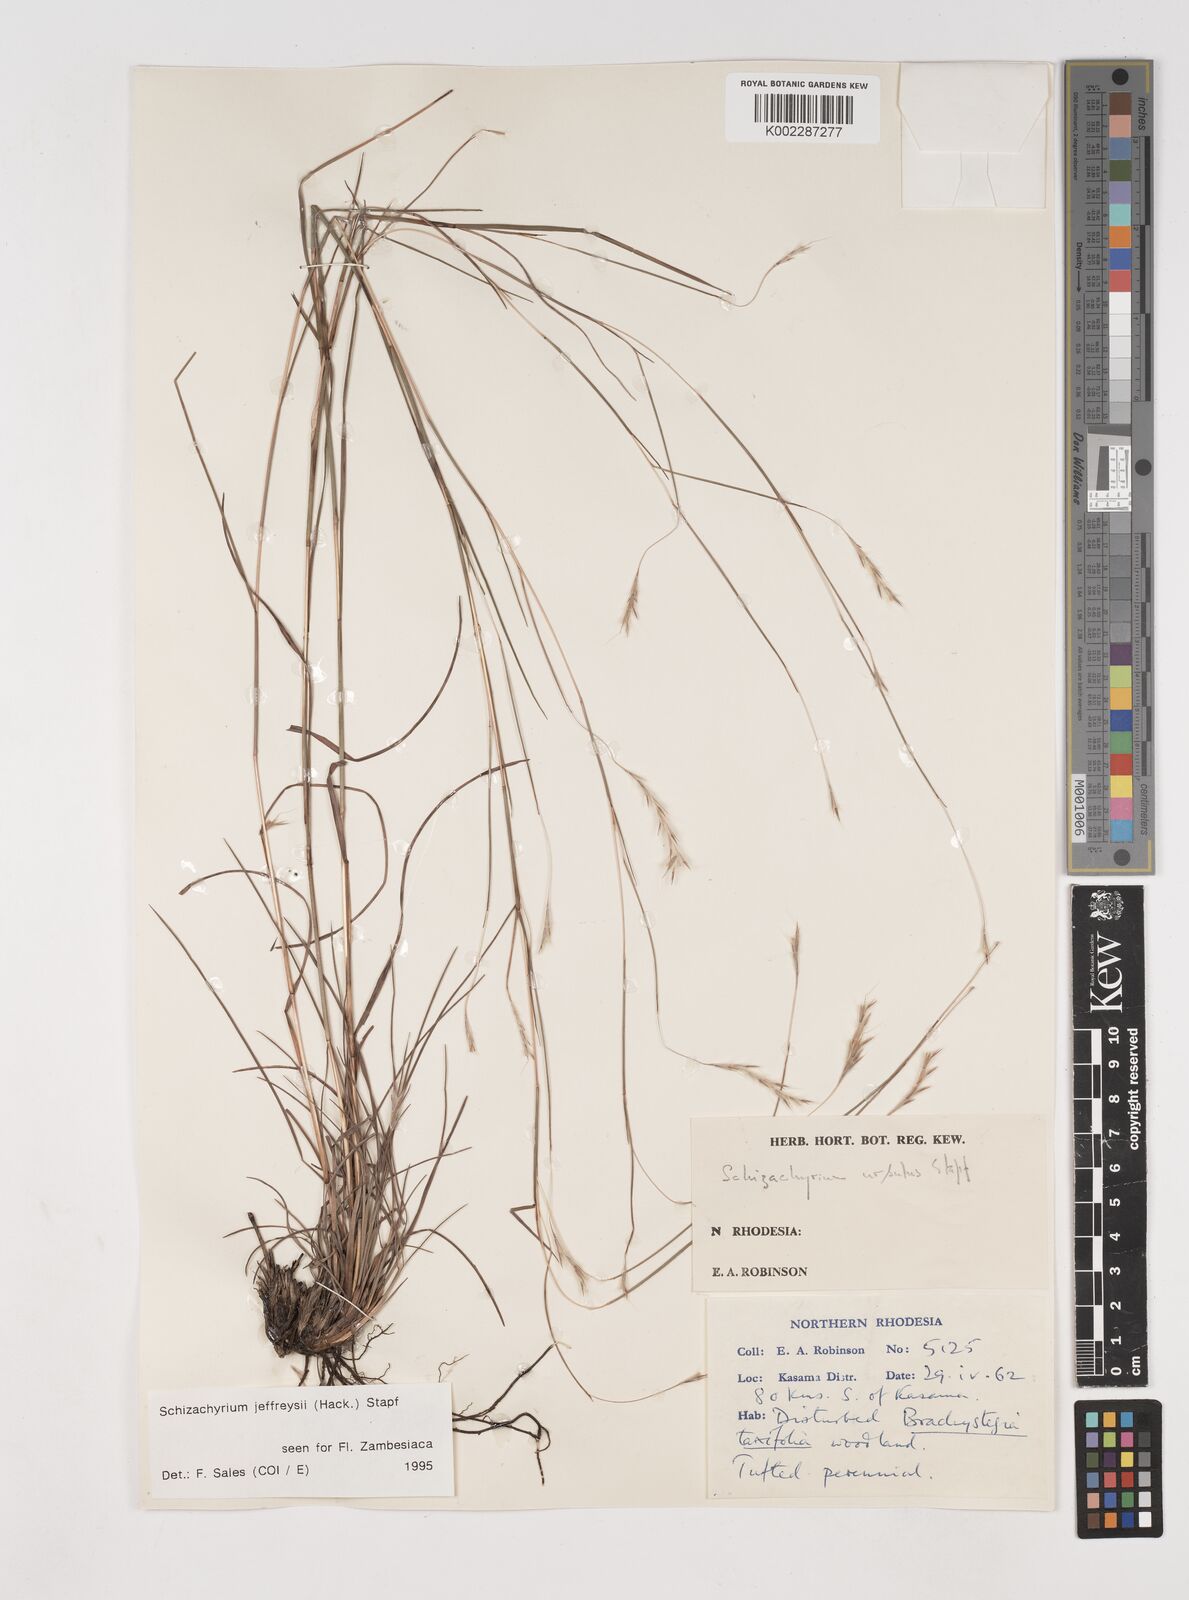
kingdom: Plantae
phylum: Tracheophyta
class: Liliopsida
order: Poales
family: Poaceae
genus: Schizachyrium
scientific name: Schizachyrium jeffreysii
